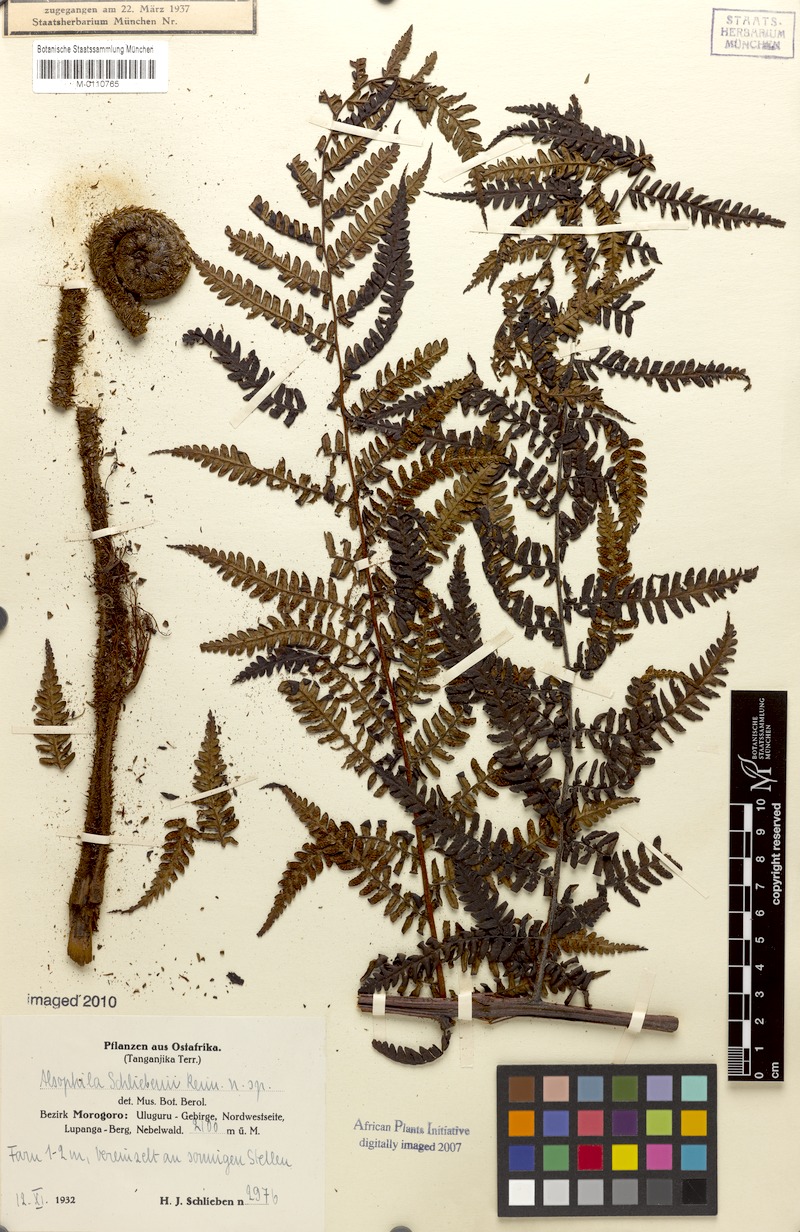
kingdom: Plantae
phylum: Tracheophyta
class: Polypodiopsida
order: Cyatheales
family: Cyatheaceae
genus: Gymnosphaera
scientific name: Gymnosphaera schliebenii
